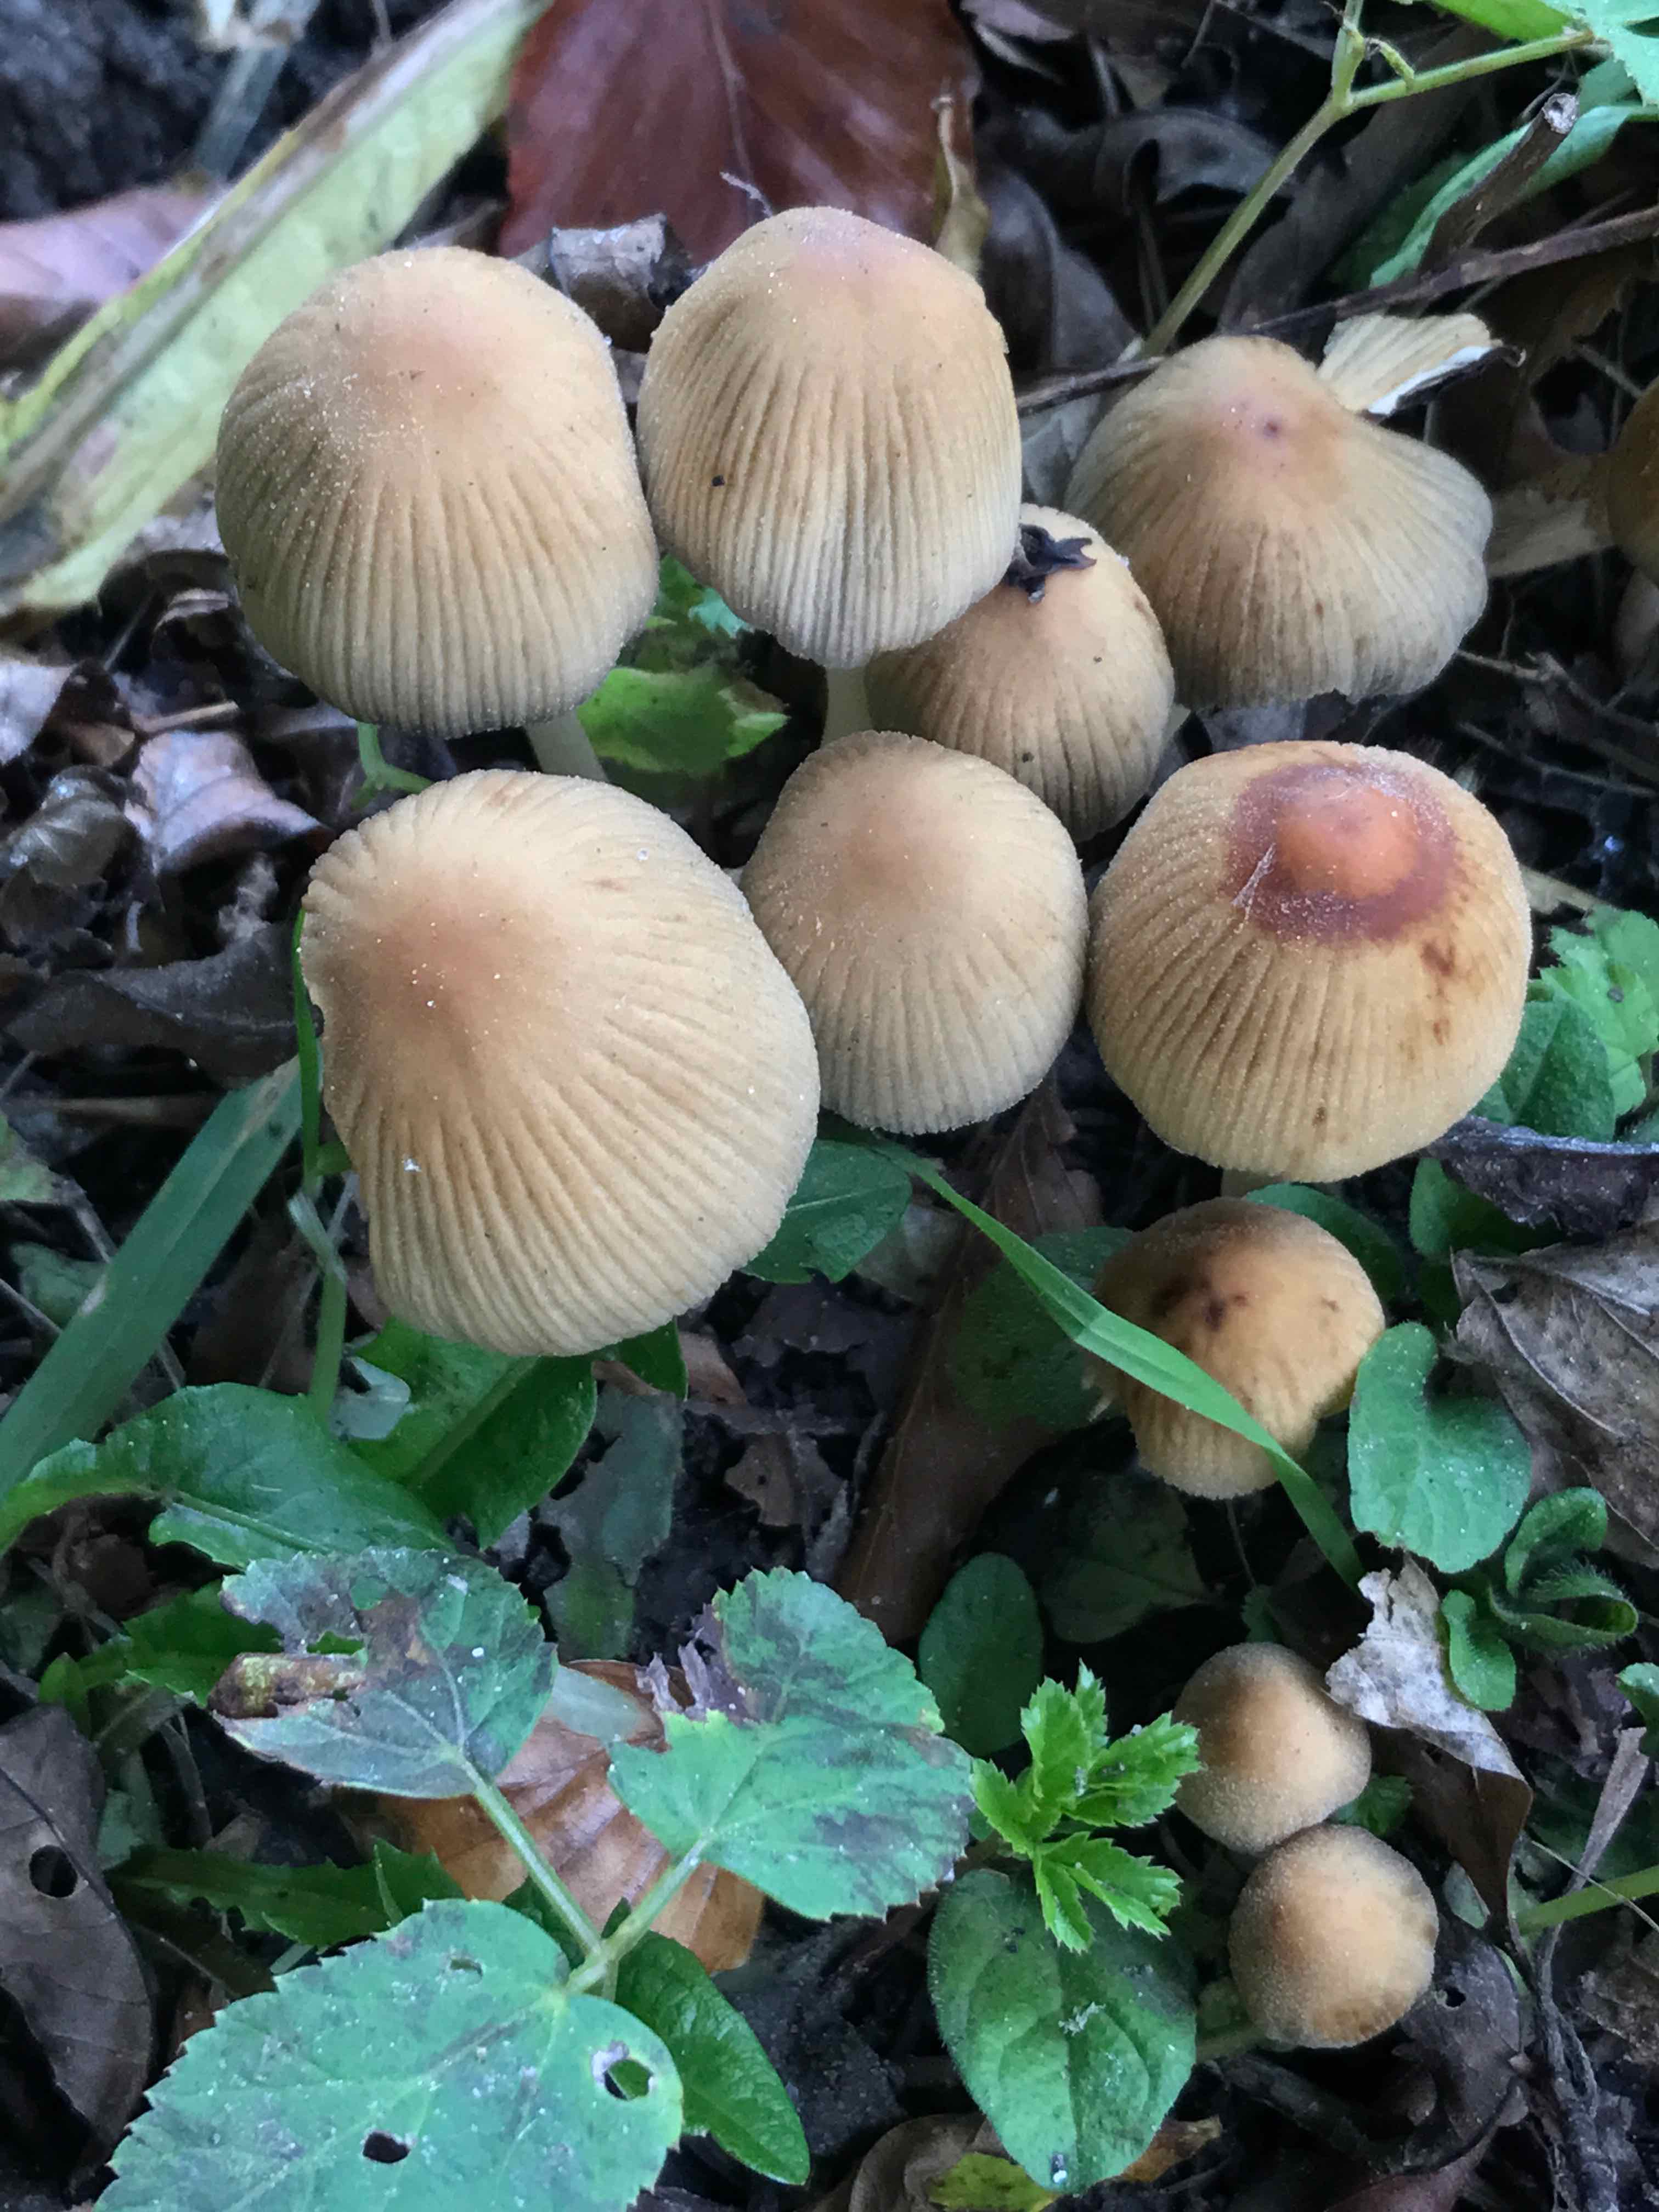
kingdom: Fungi
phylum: Basidiomycota
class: Agaricomycetes
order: Agaricales
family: Psathyrellaceae
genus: Coprinellus
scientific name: Coprinellus micaceus
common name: glimmer-blækhat
